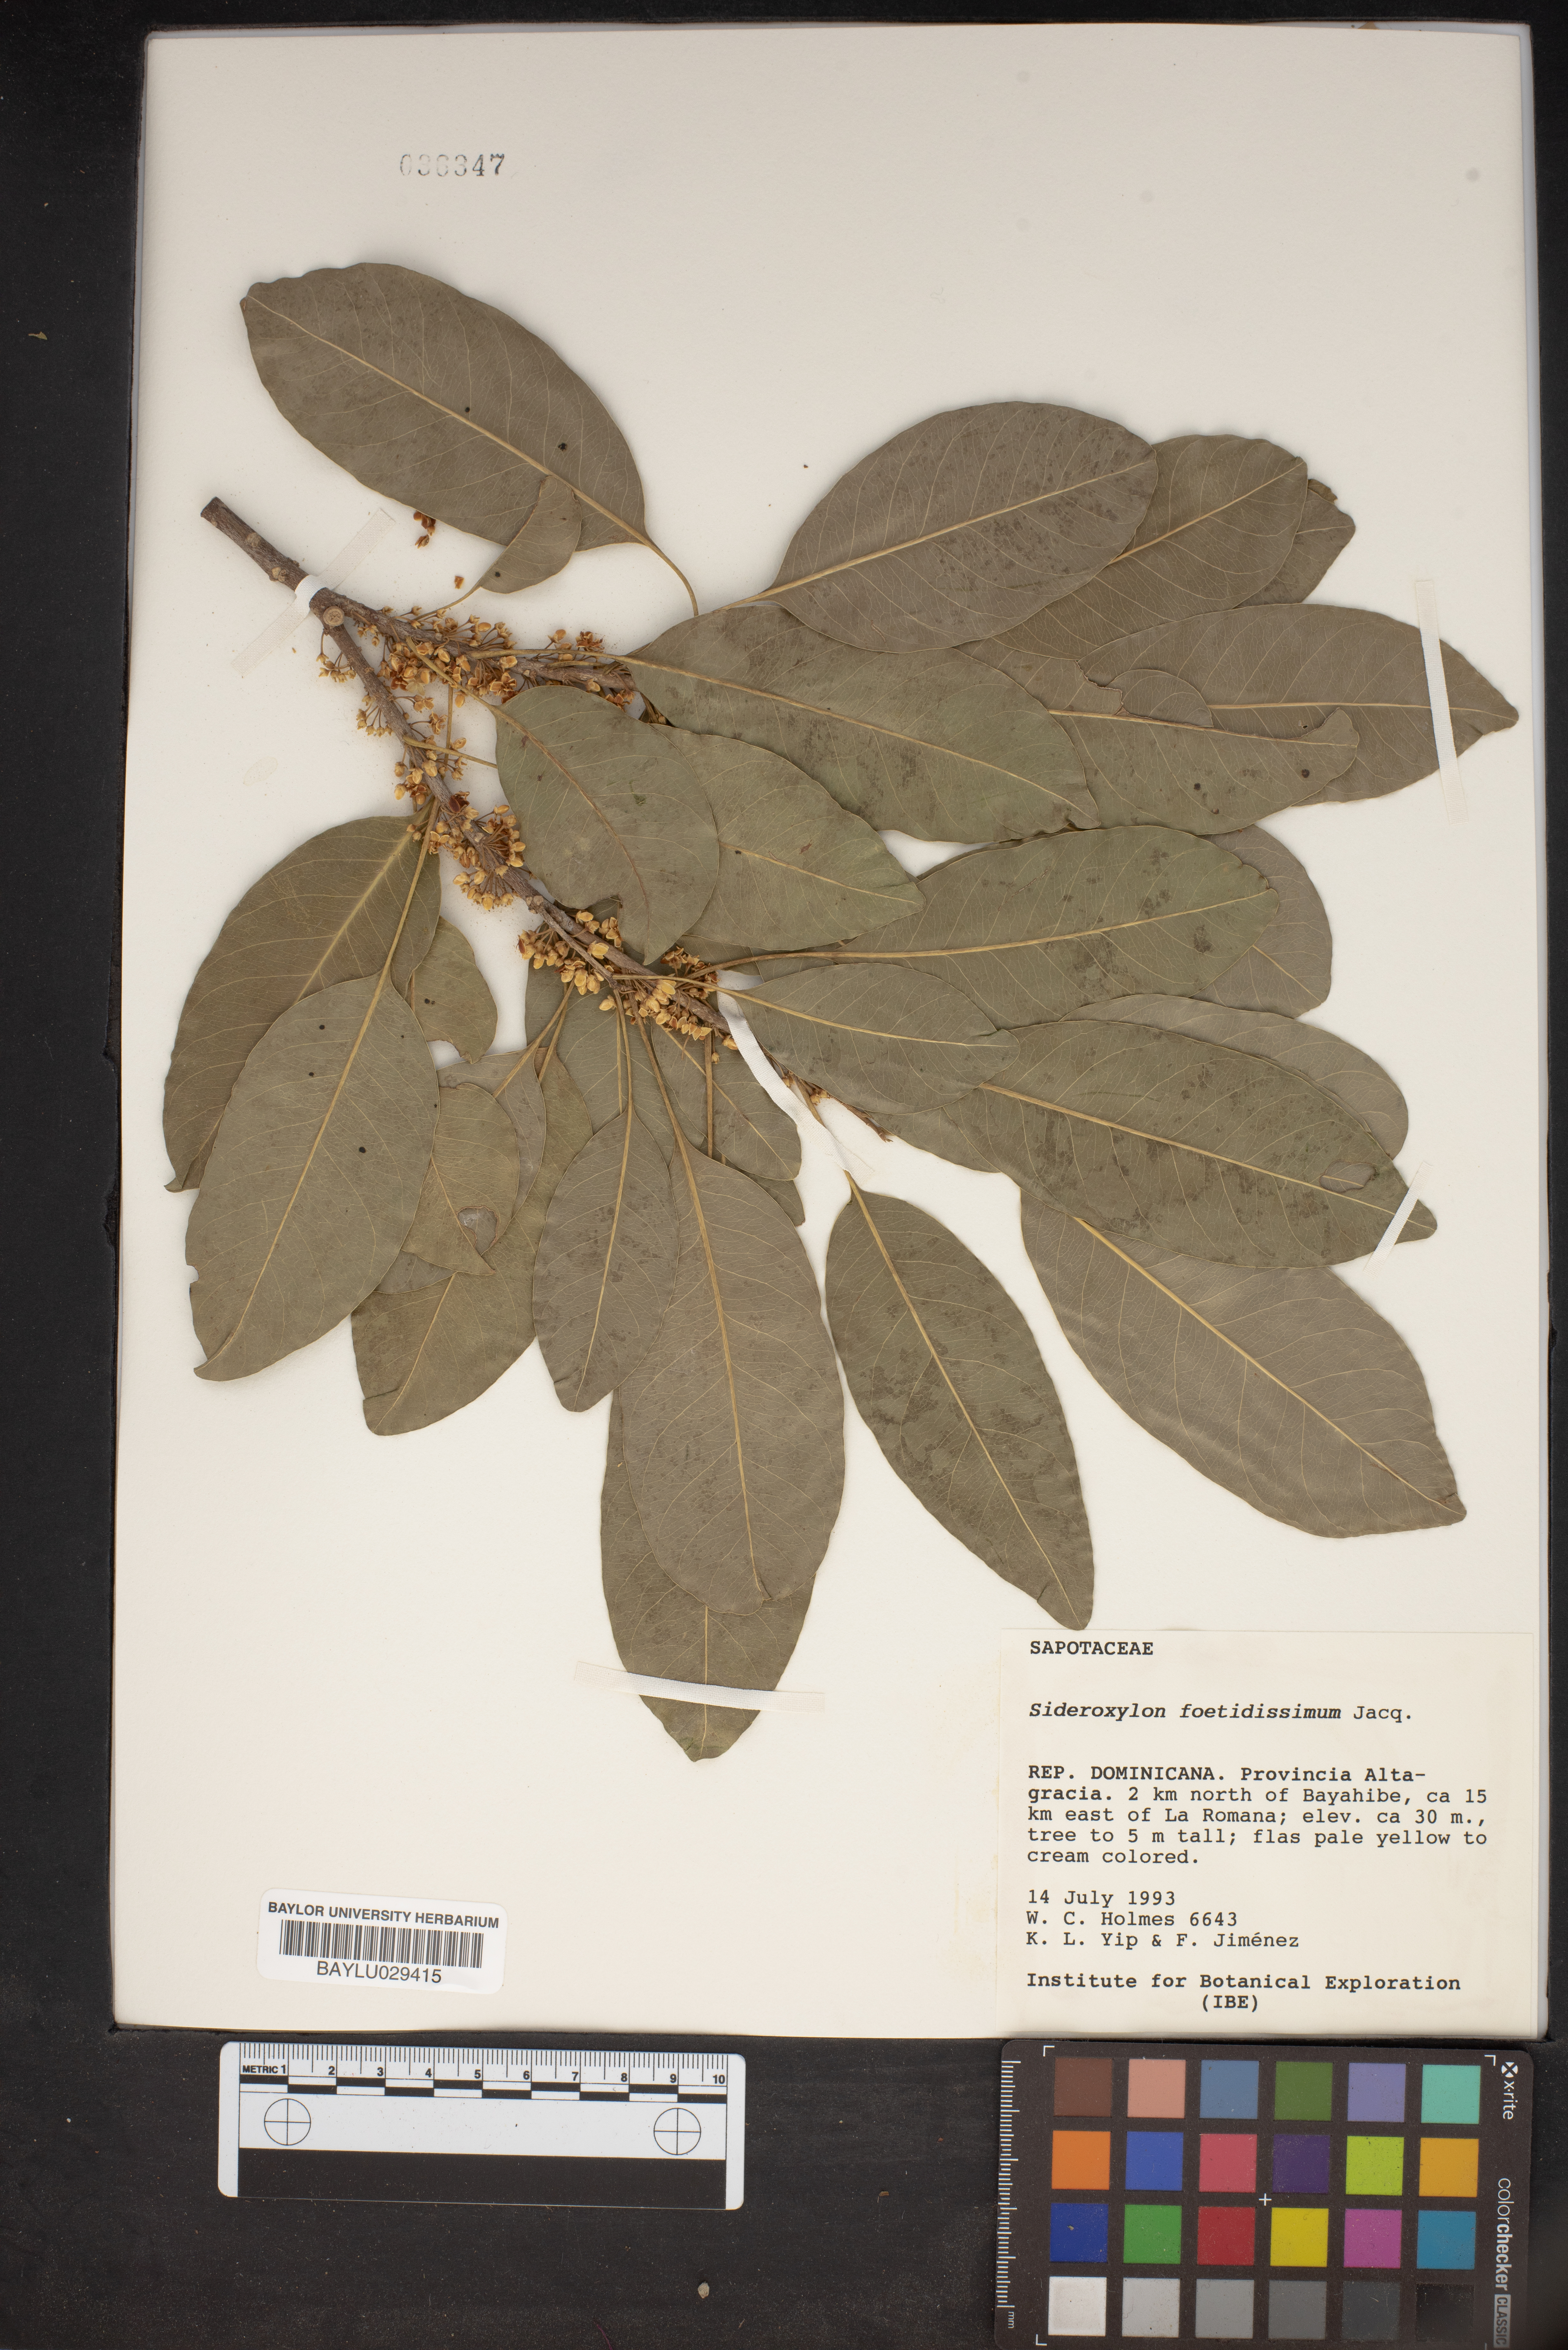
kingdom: Plantae
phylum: Tracheophyta
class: Magnoliopsida
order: Ericales
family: Sapotaceae
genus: Sideroxylon
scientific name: Sideroxylon foetidissimum
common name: Barbados-mastic
